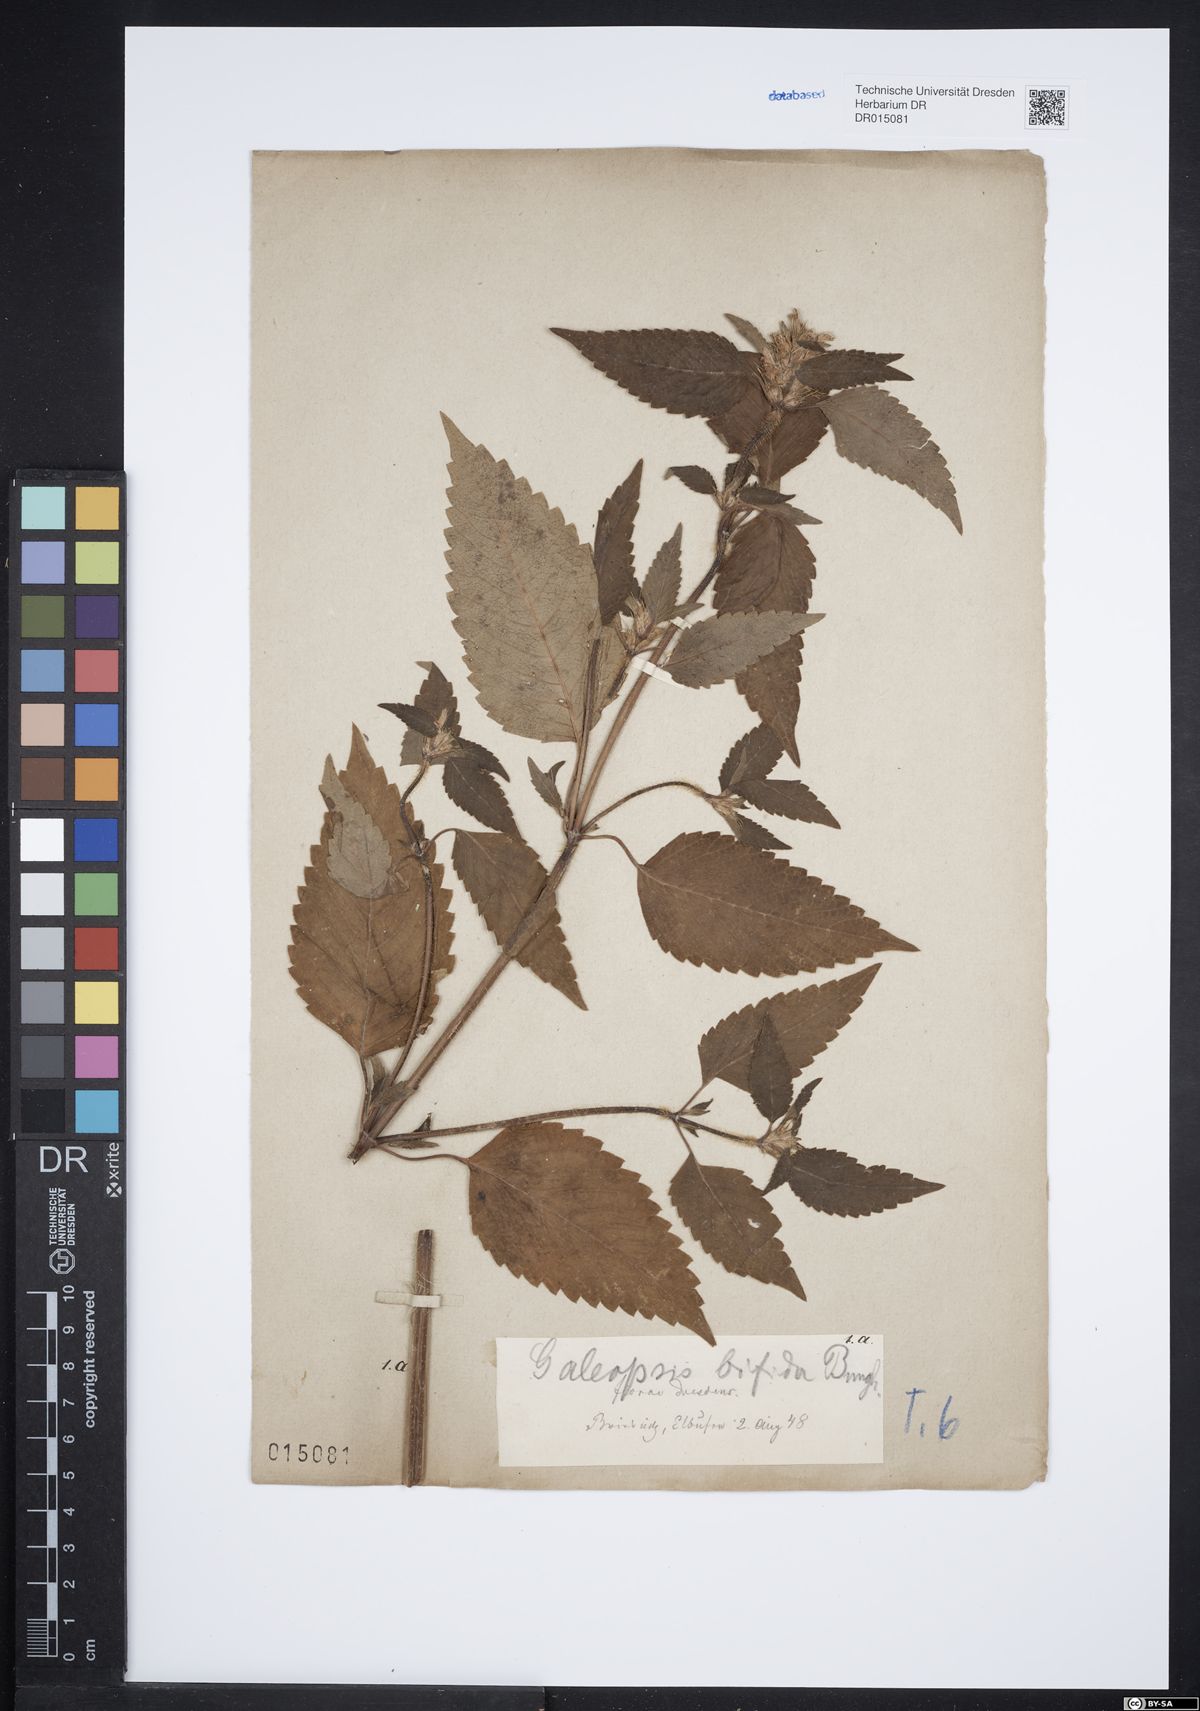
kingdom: Plantae
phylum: Tracheophyta
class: Magnoliopsida
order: Lamiales
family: Lamiaceae
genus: Galeopsis
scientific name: Galeopsis bifida
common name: Bifid hemp-nettle
